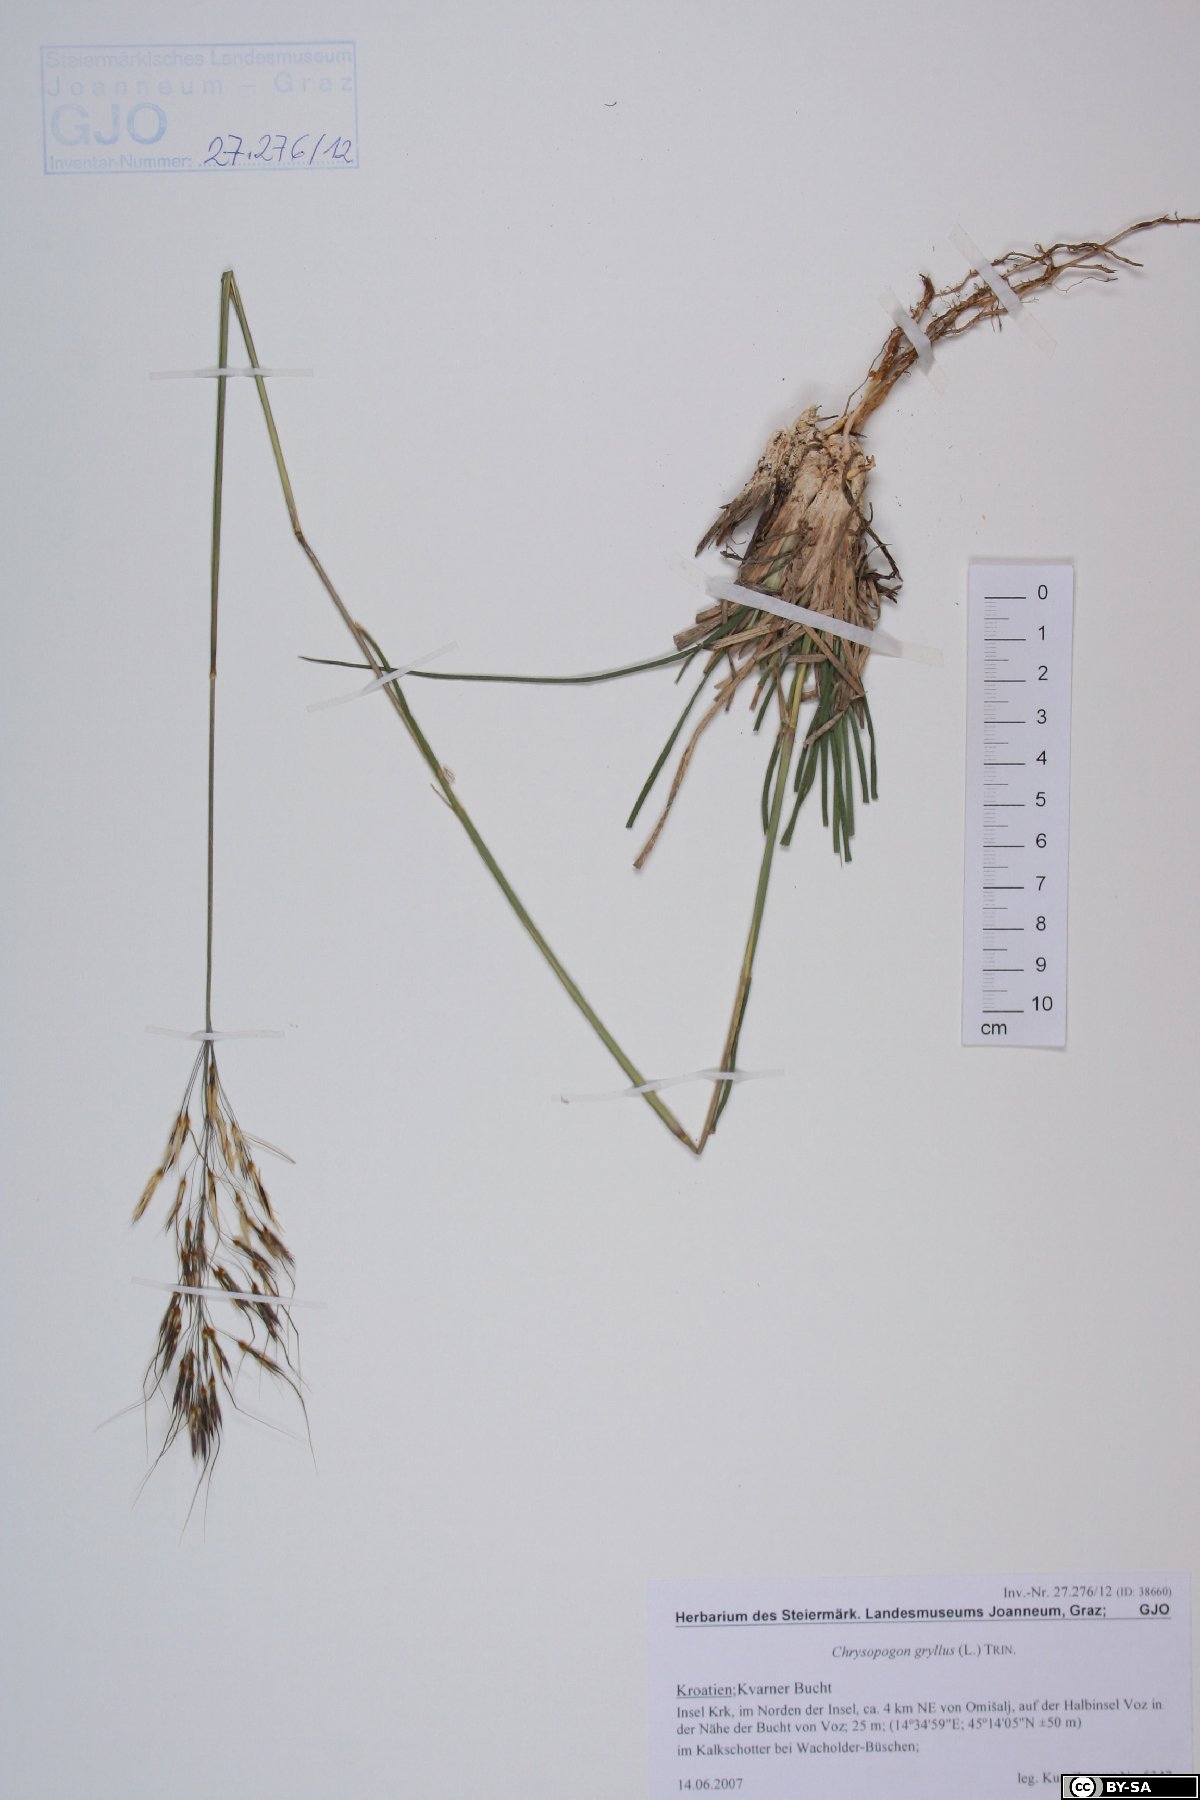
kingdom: Plantae
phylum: Tracheophyta
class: Liliopsida
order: Poales
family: Poaceae
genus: Chrysopogon
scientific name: Chrysopogon gryllus
